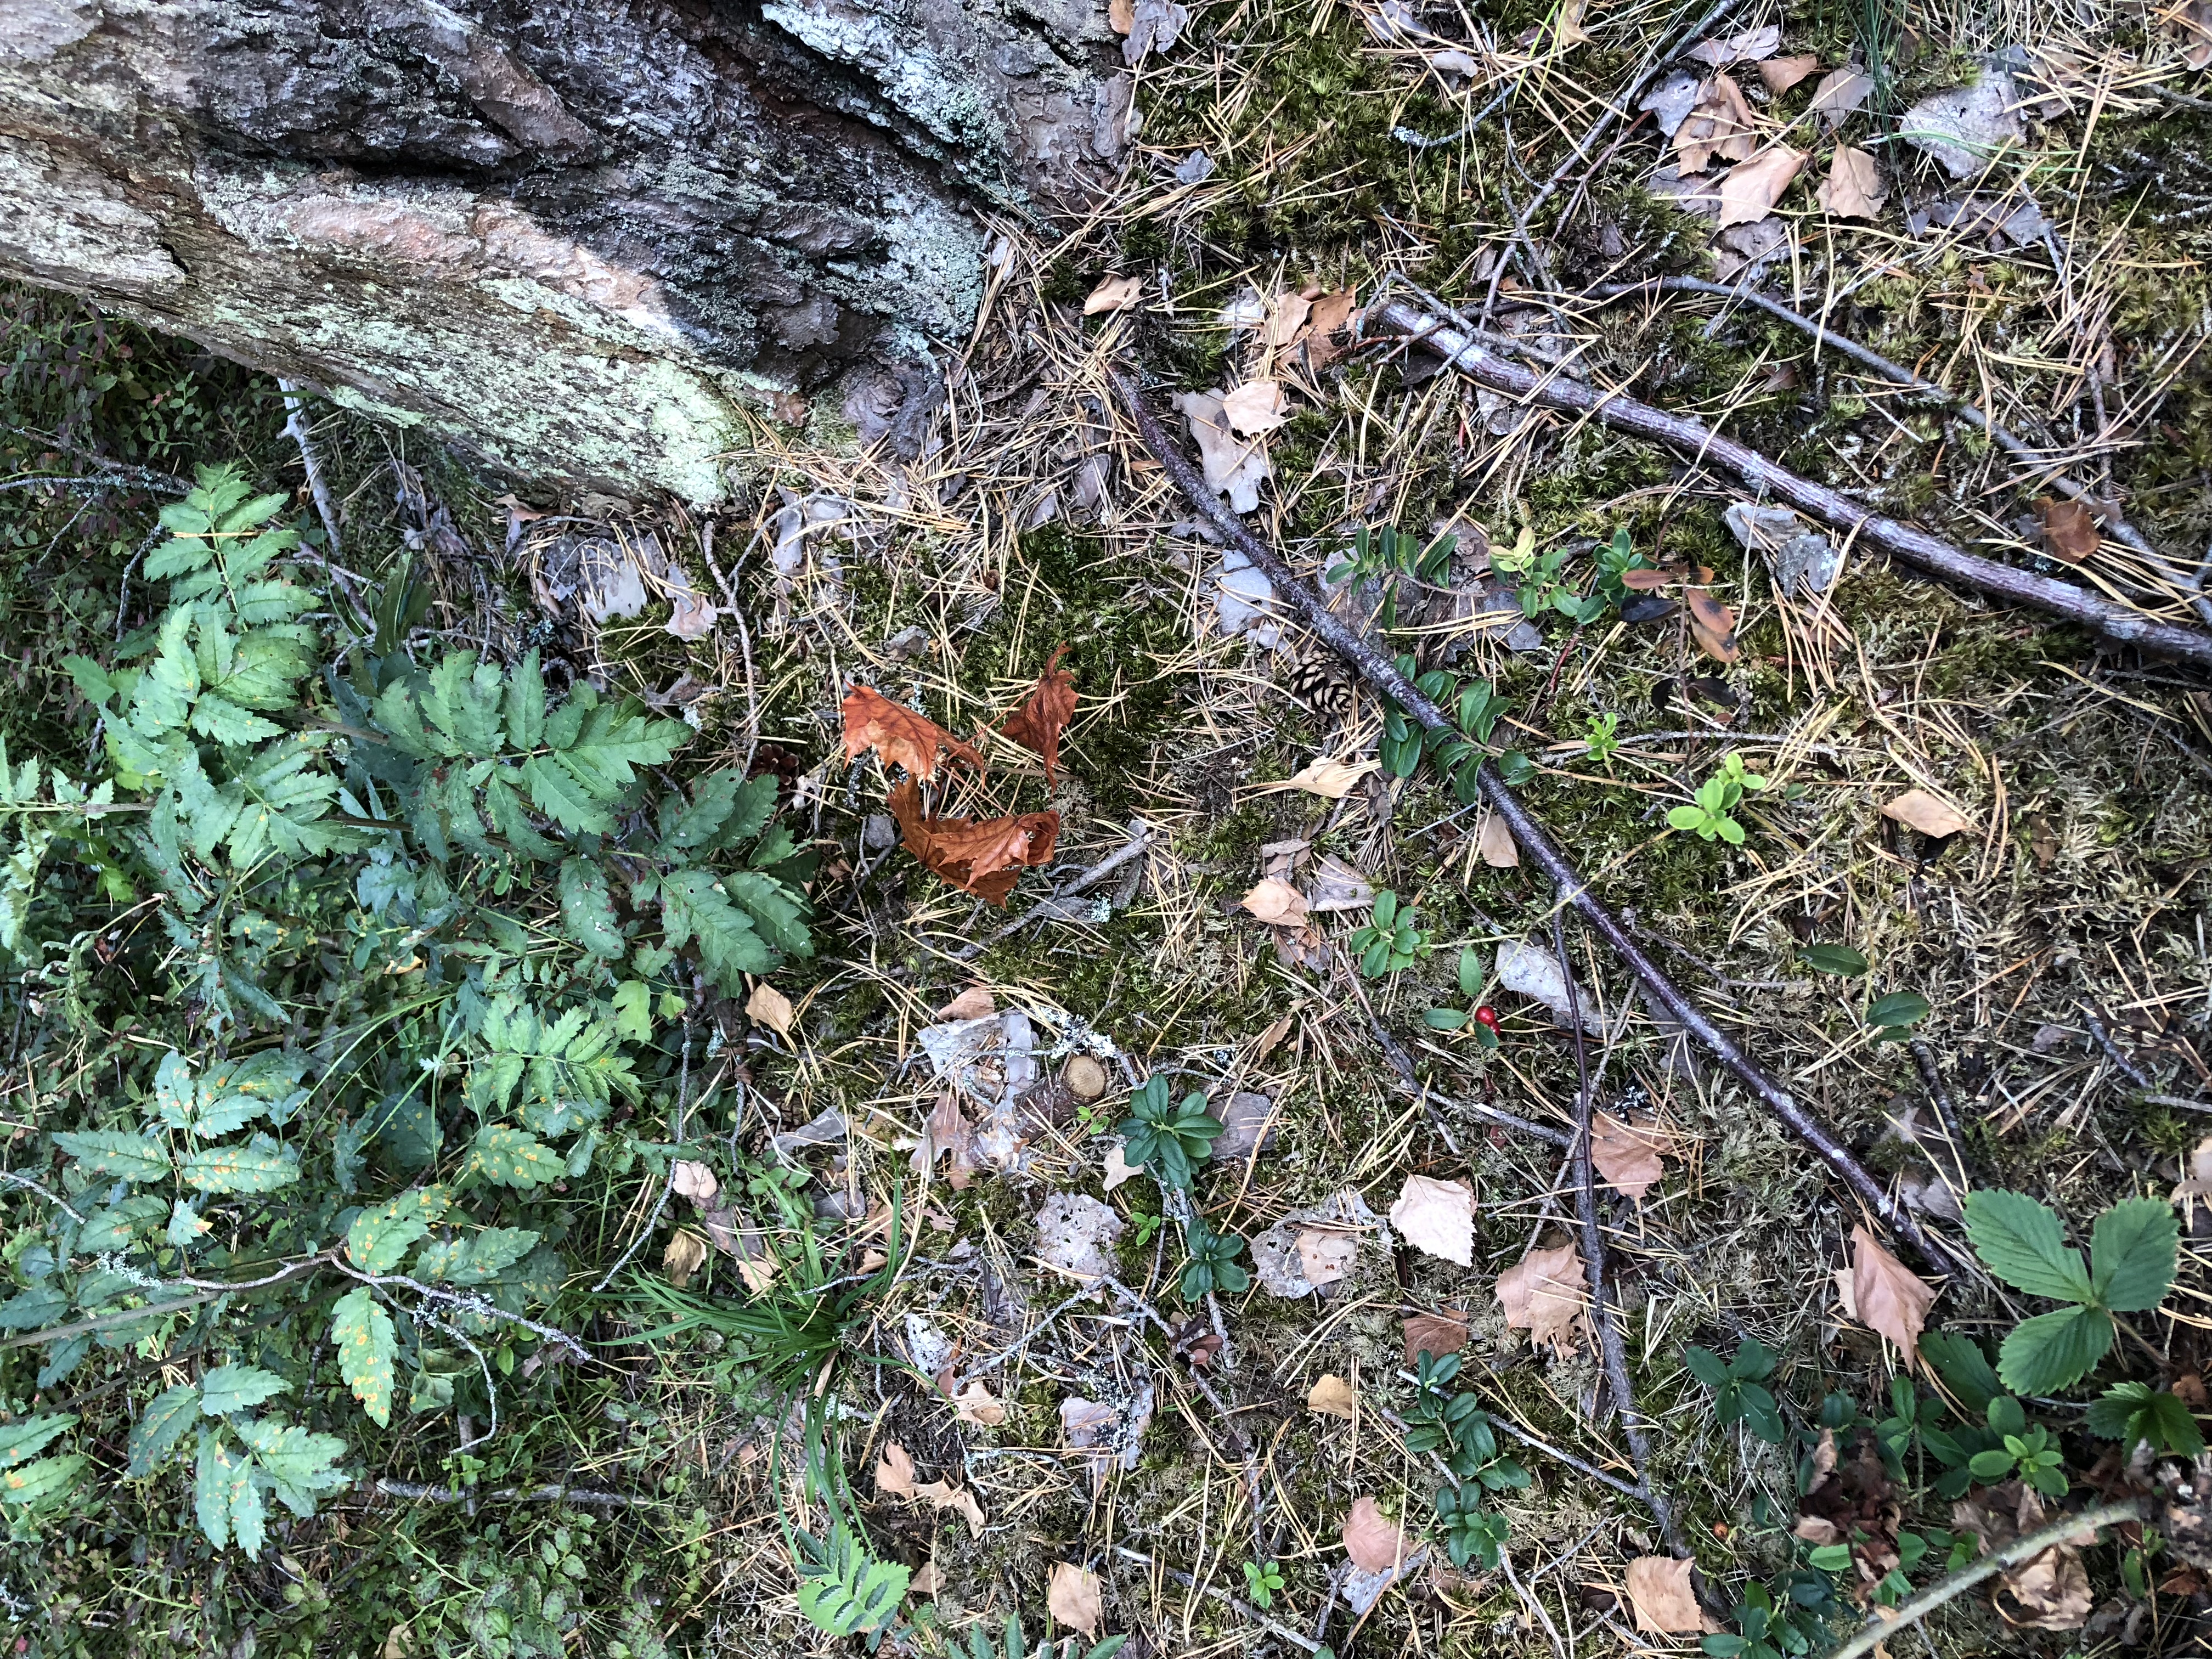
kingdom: Plantae
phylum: Tracheophyta
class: Magnoliopsida
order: Ericales
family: Ericaceae
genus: Vaccinium
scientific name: Vaccinium vitis-idaea
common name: Cowberry
